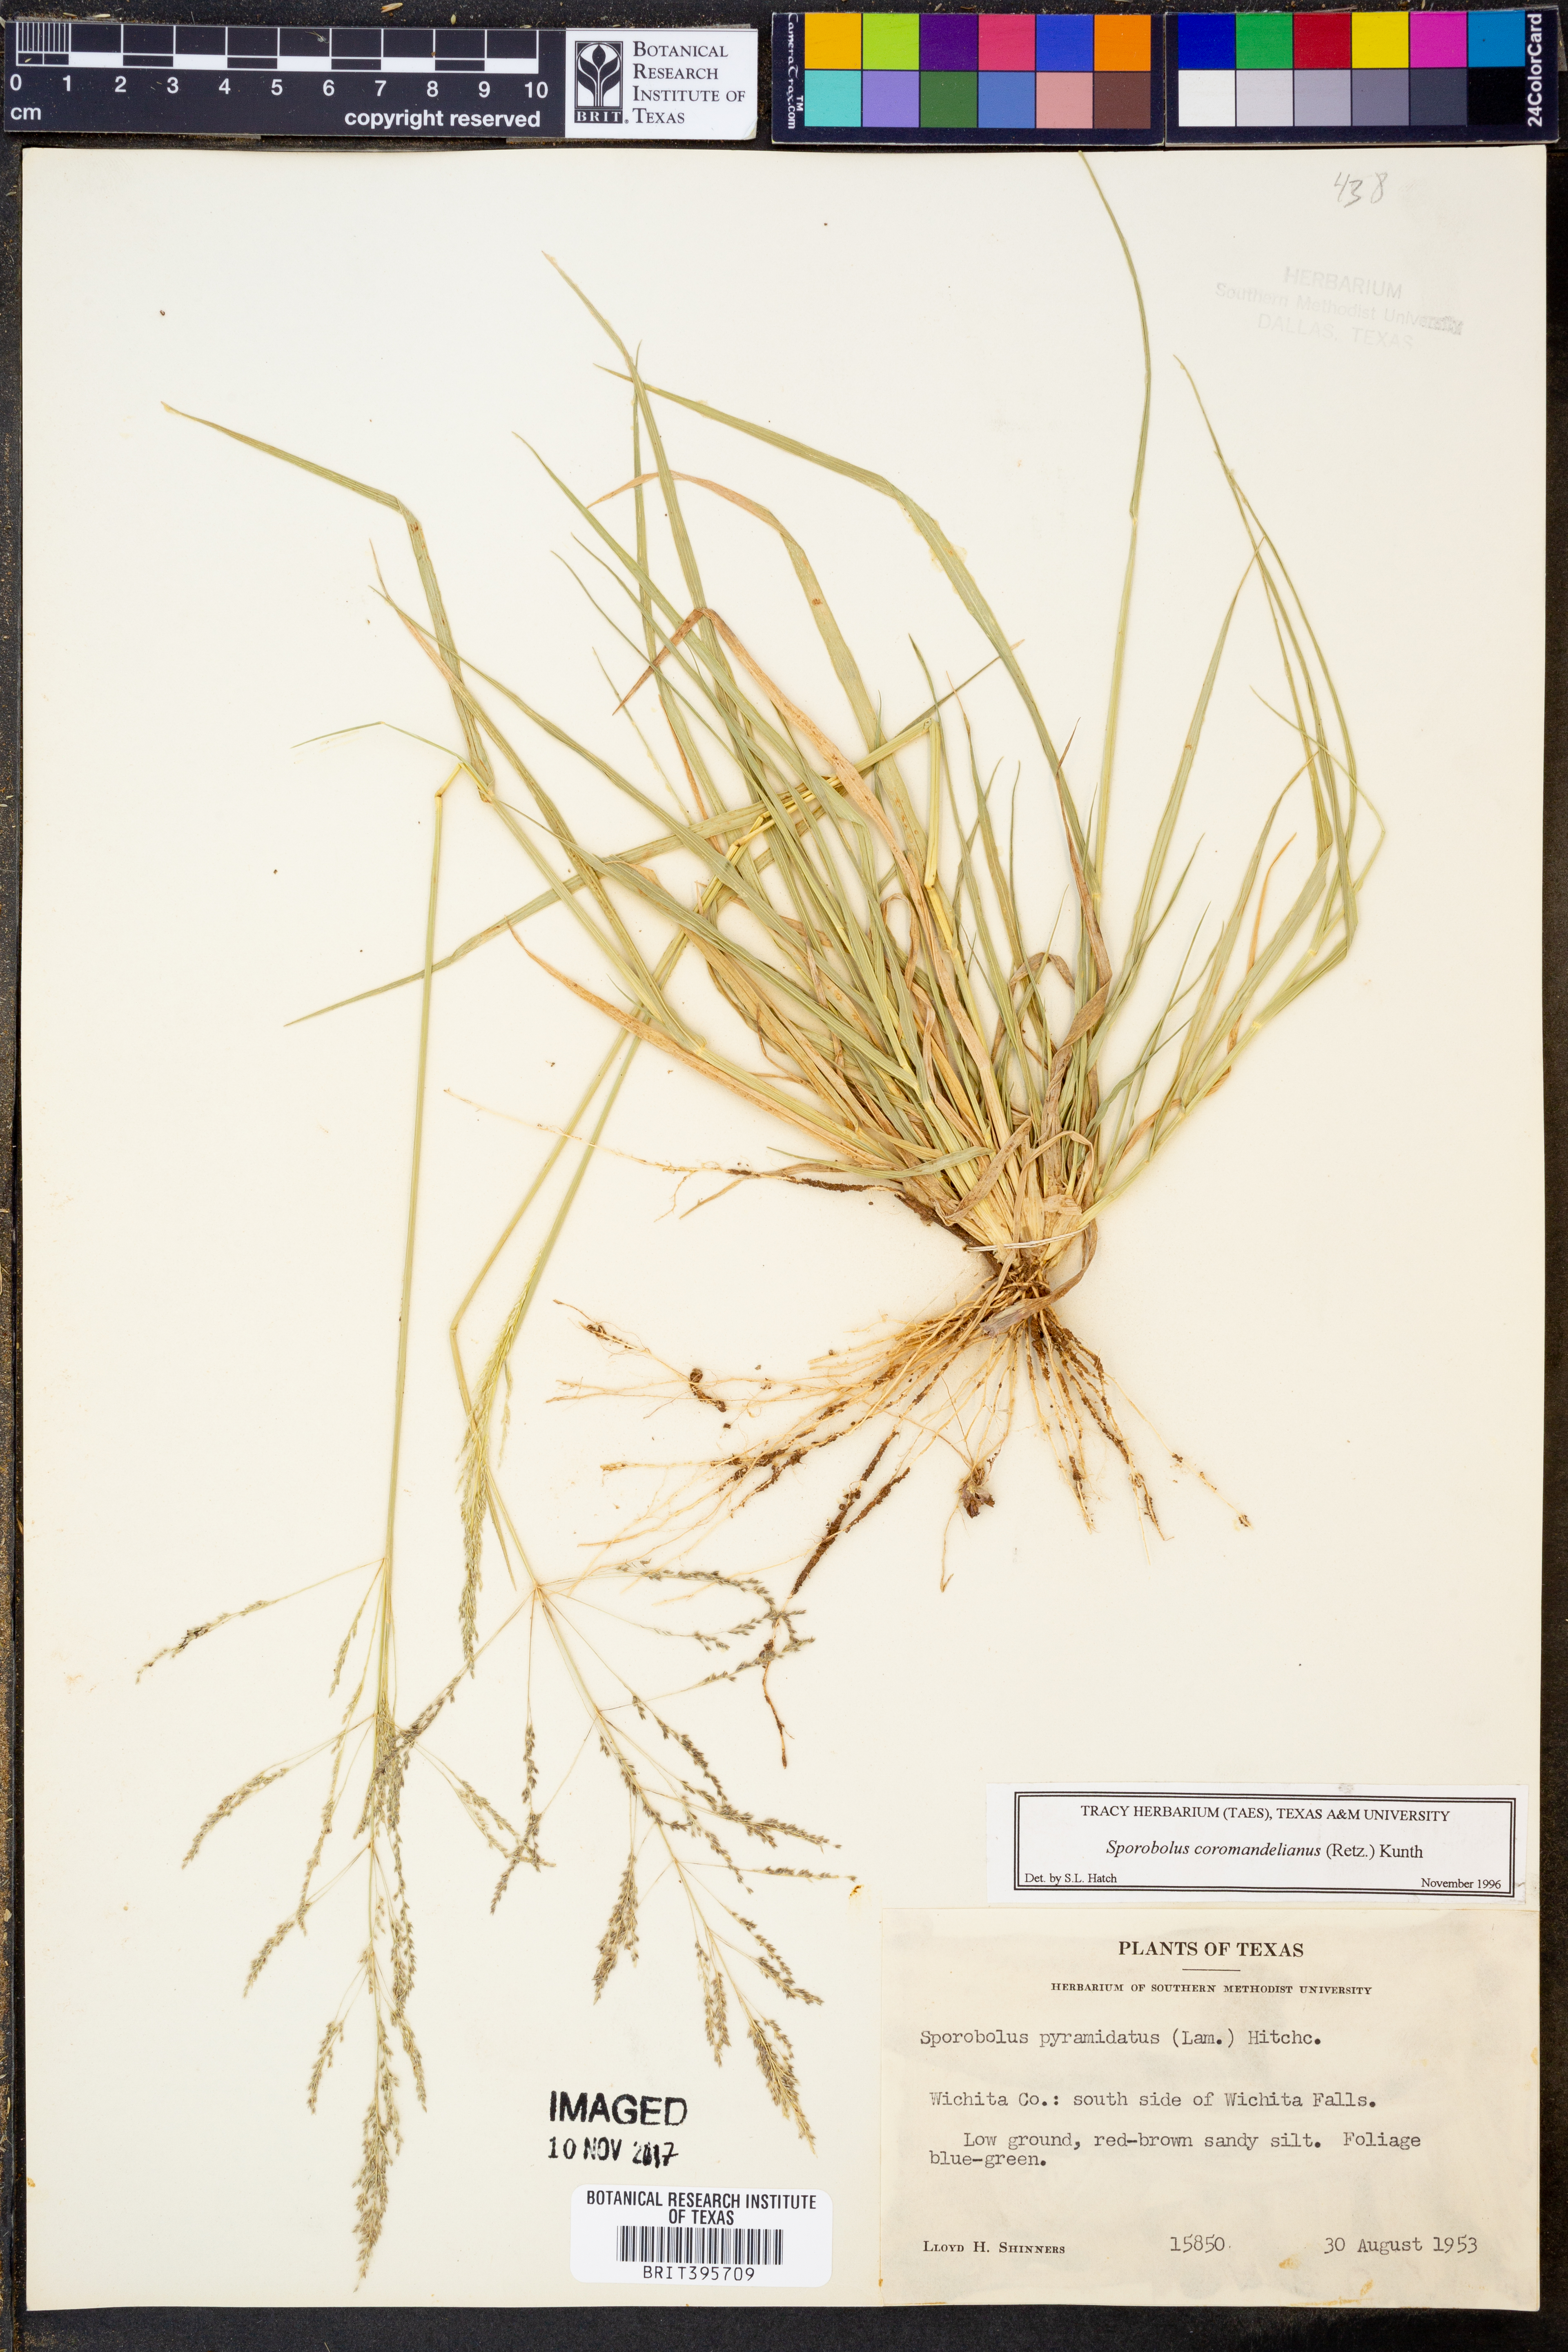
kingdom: Plantae
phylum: Tracheophyta
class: Liliopsida
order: Poales
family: Poaceae
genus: Sporobolus
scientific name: Sporobolus coromandelianus
